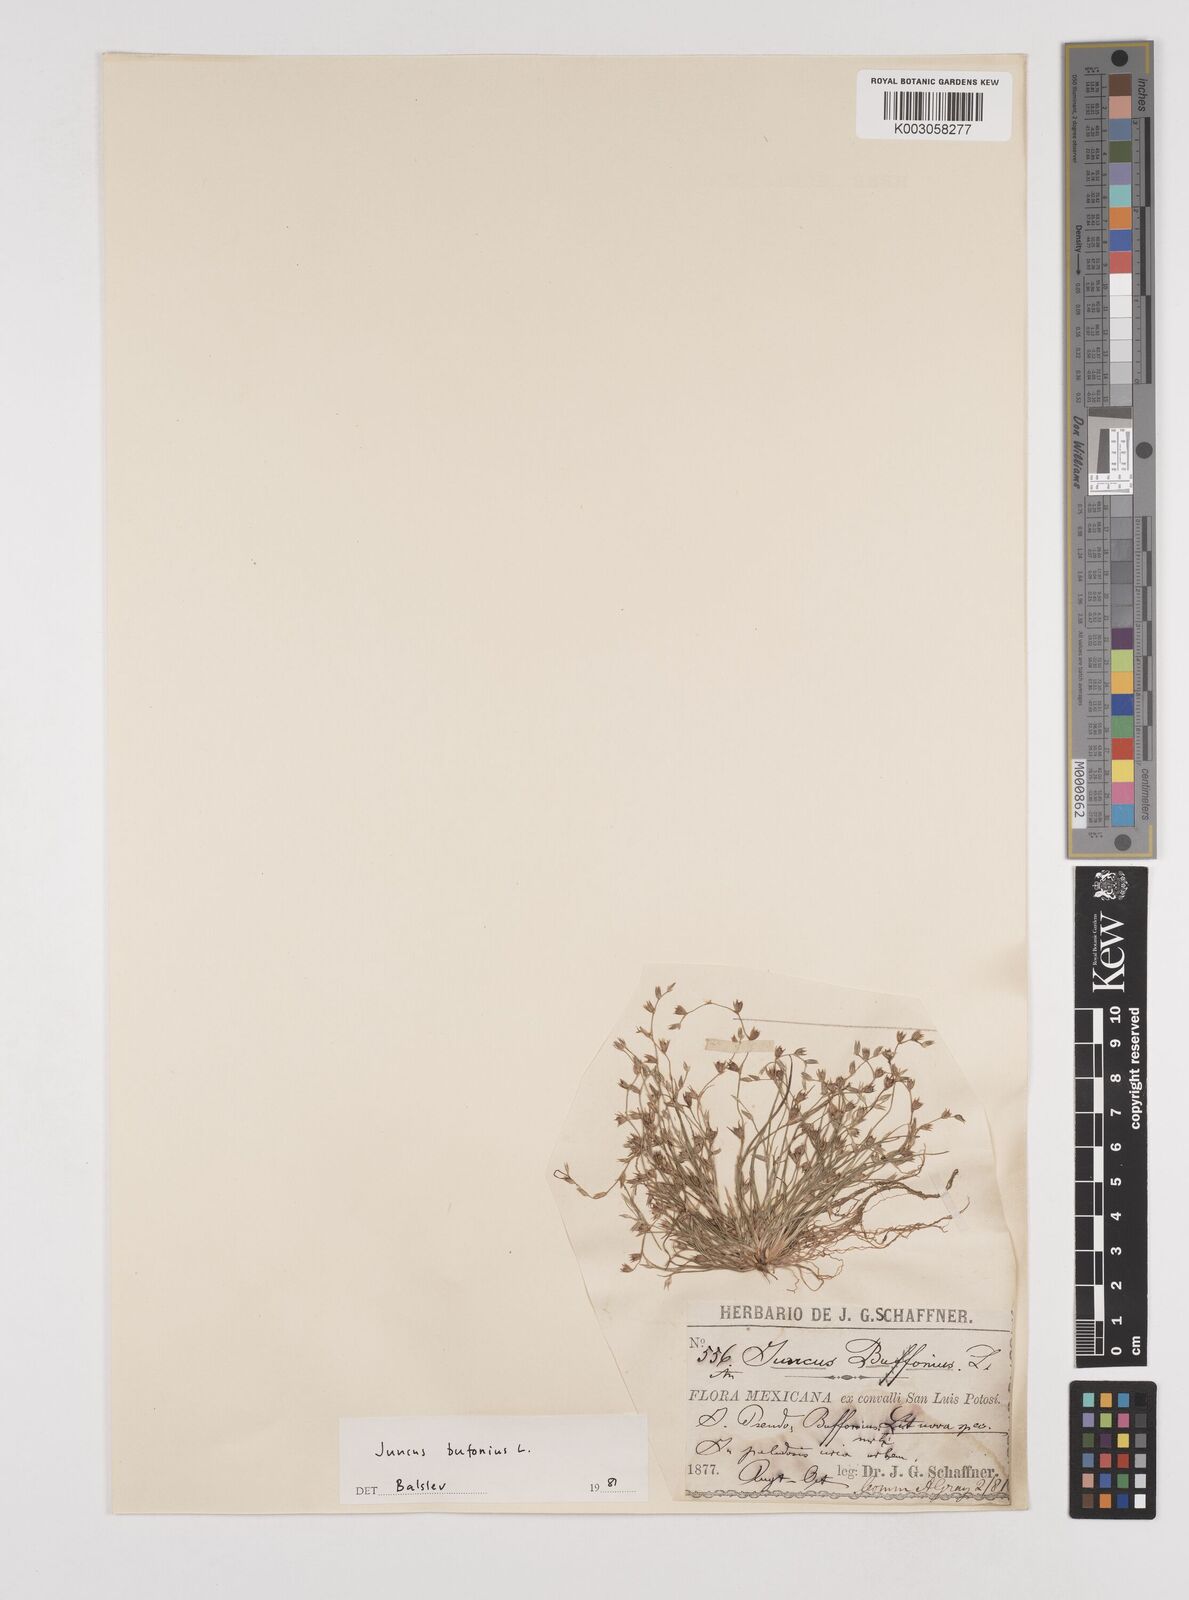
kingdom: Plantae
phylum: Tracheophyta
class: Liliopsida
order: Poales
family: Juncaceae
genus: Juncus
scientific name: Juncus bufonius
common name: Toad rush
